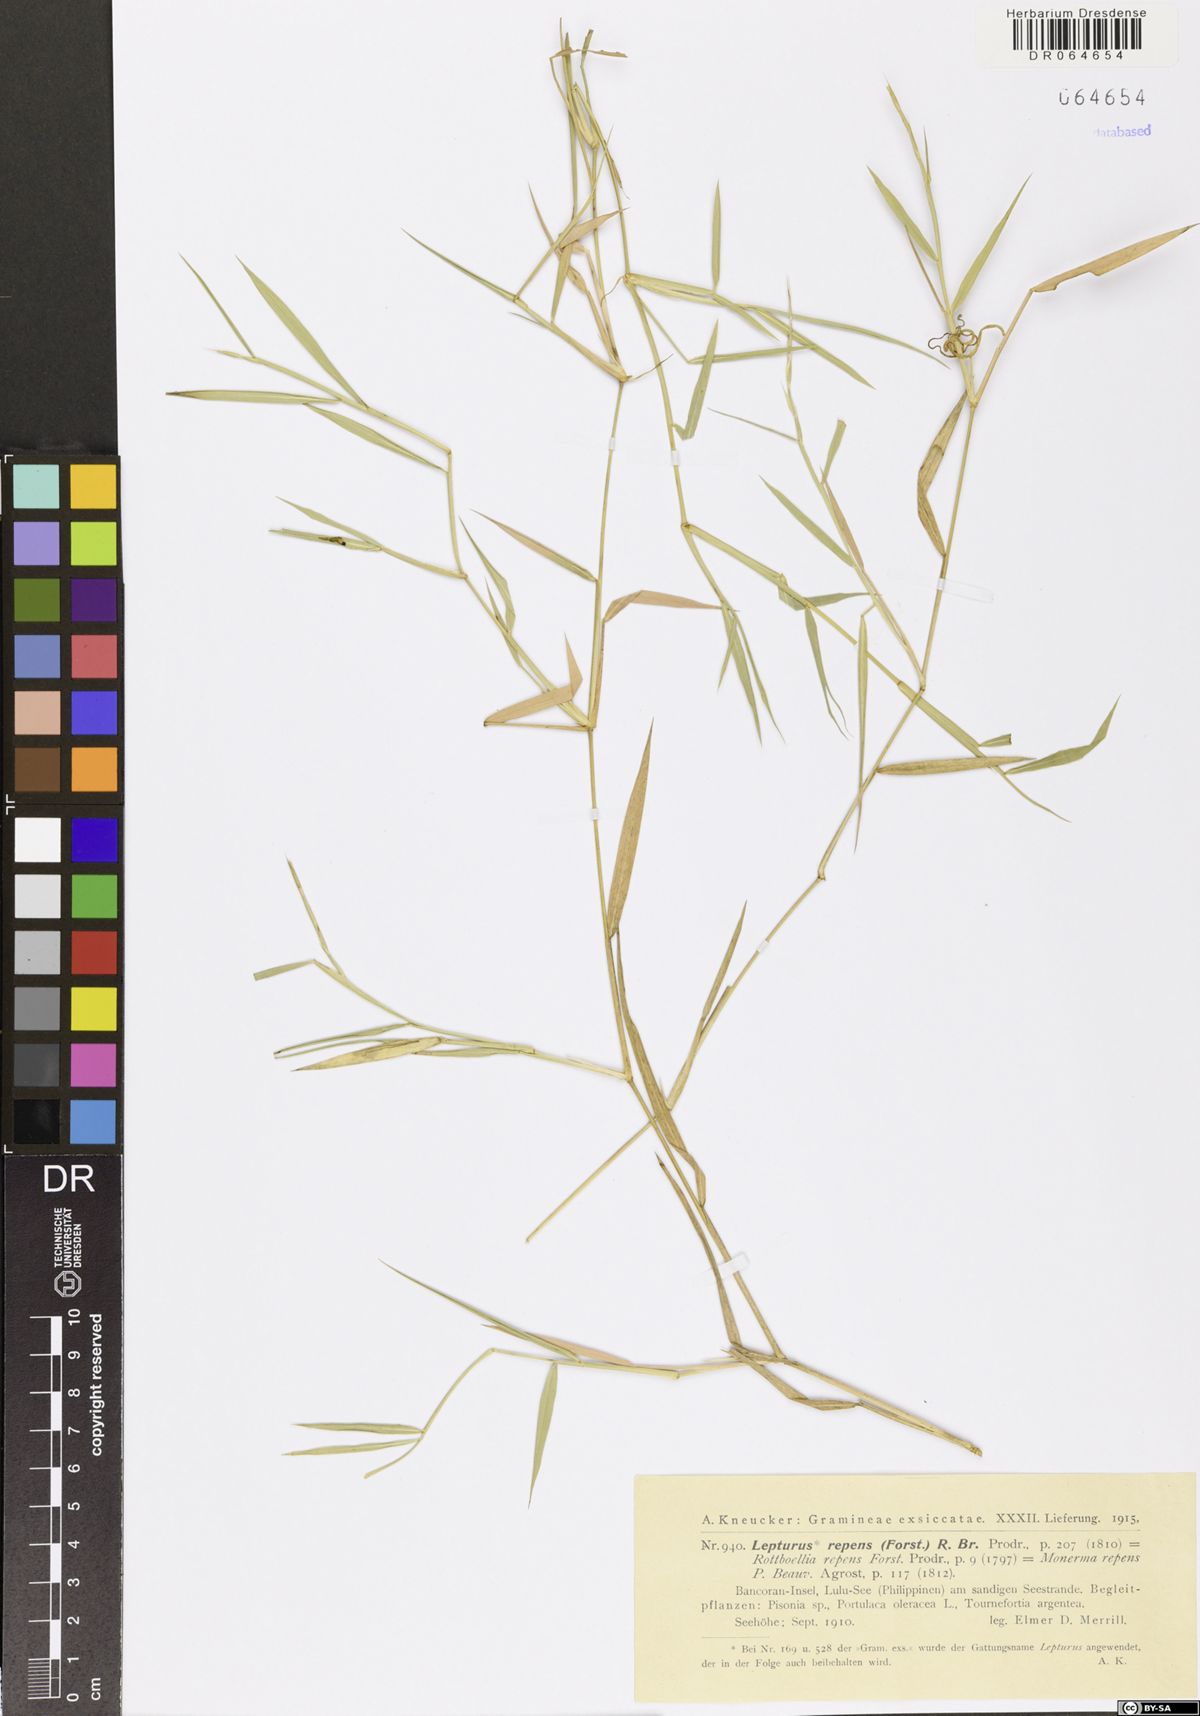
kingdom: Plantae
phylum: Tracheophyta
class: Liliopsida
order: Poales
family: Poaceae
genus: Lepturus
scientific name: Lepturus repens
